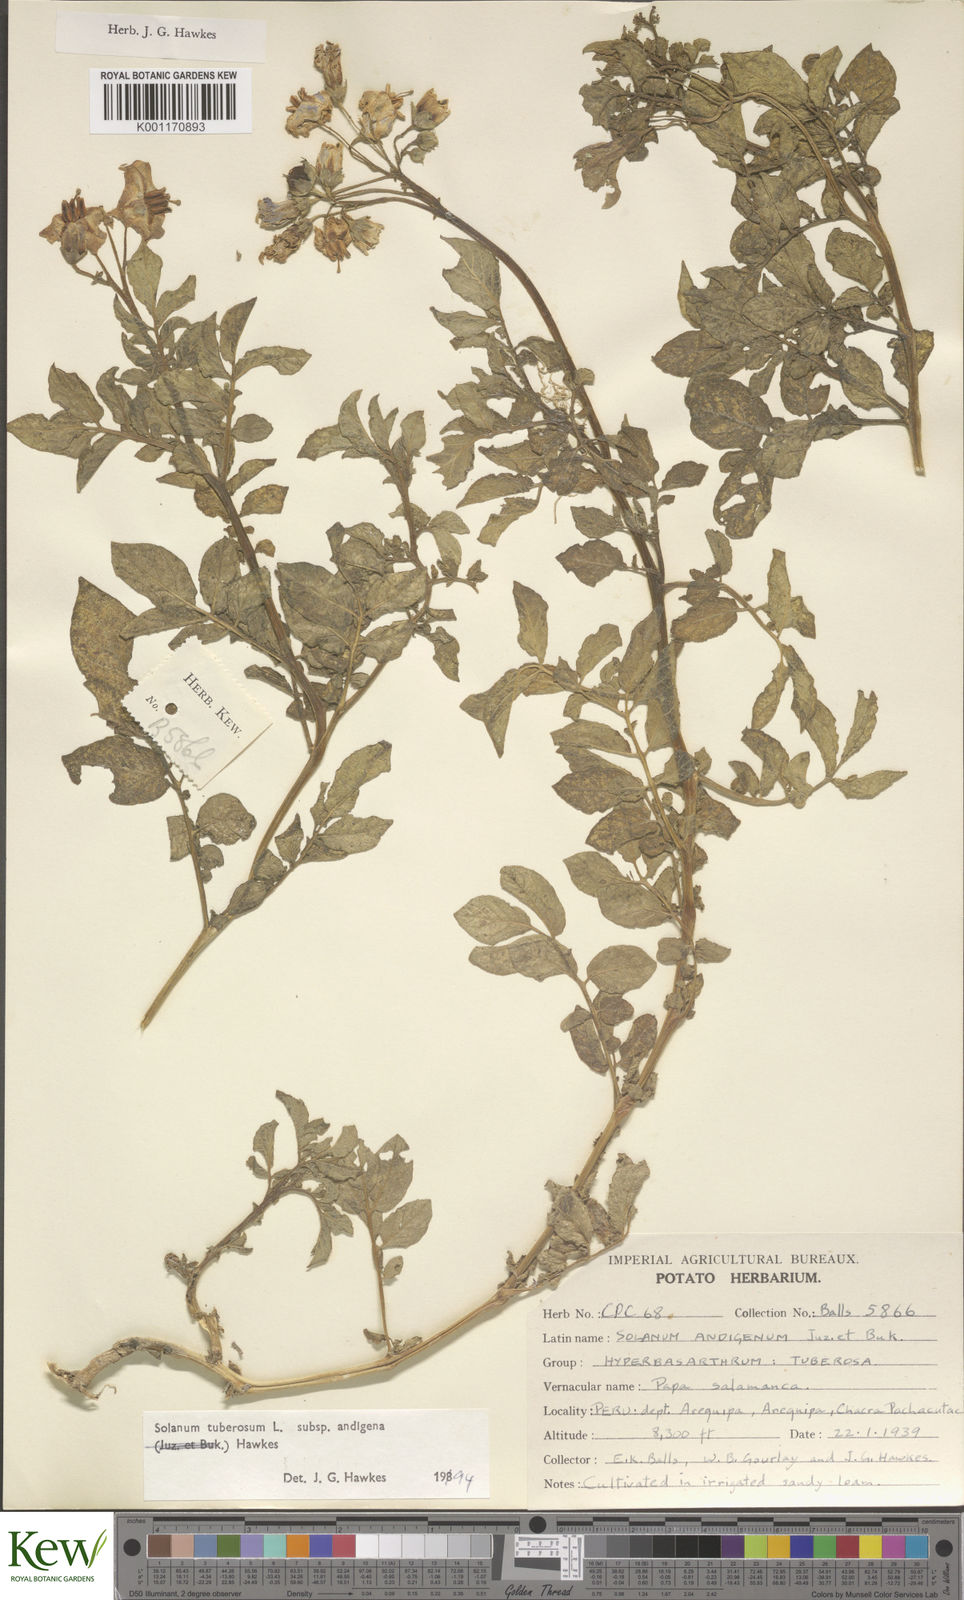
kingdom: Plantae
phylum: Tracheophyta
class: Magnoliopsida
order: Solanales
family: Solanaceae
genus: Solanum
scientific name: Solanum tuberosum
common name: Potato
